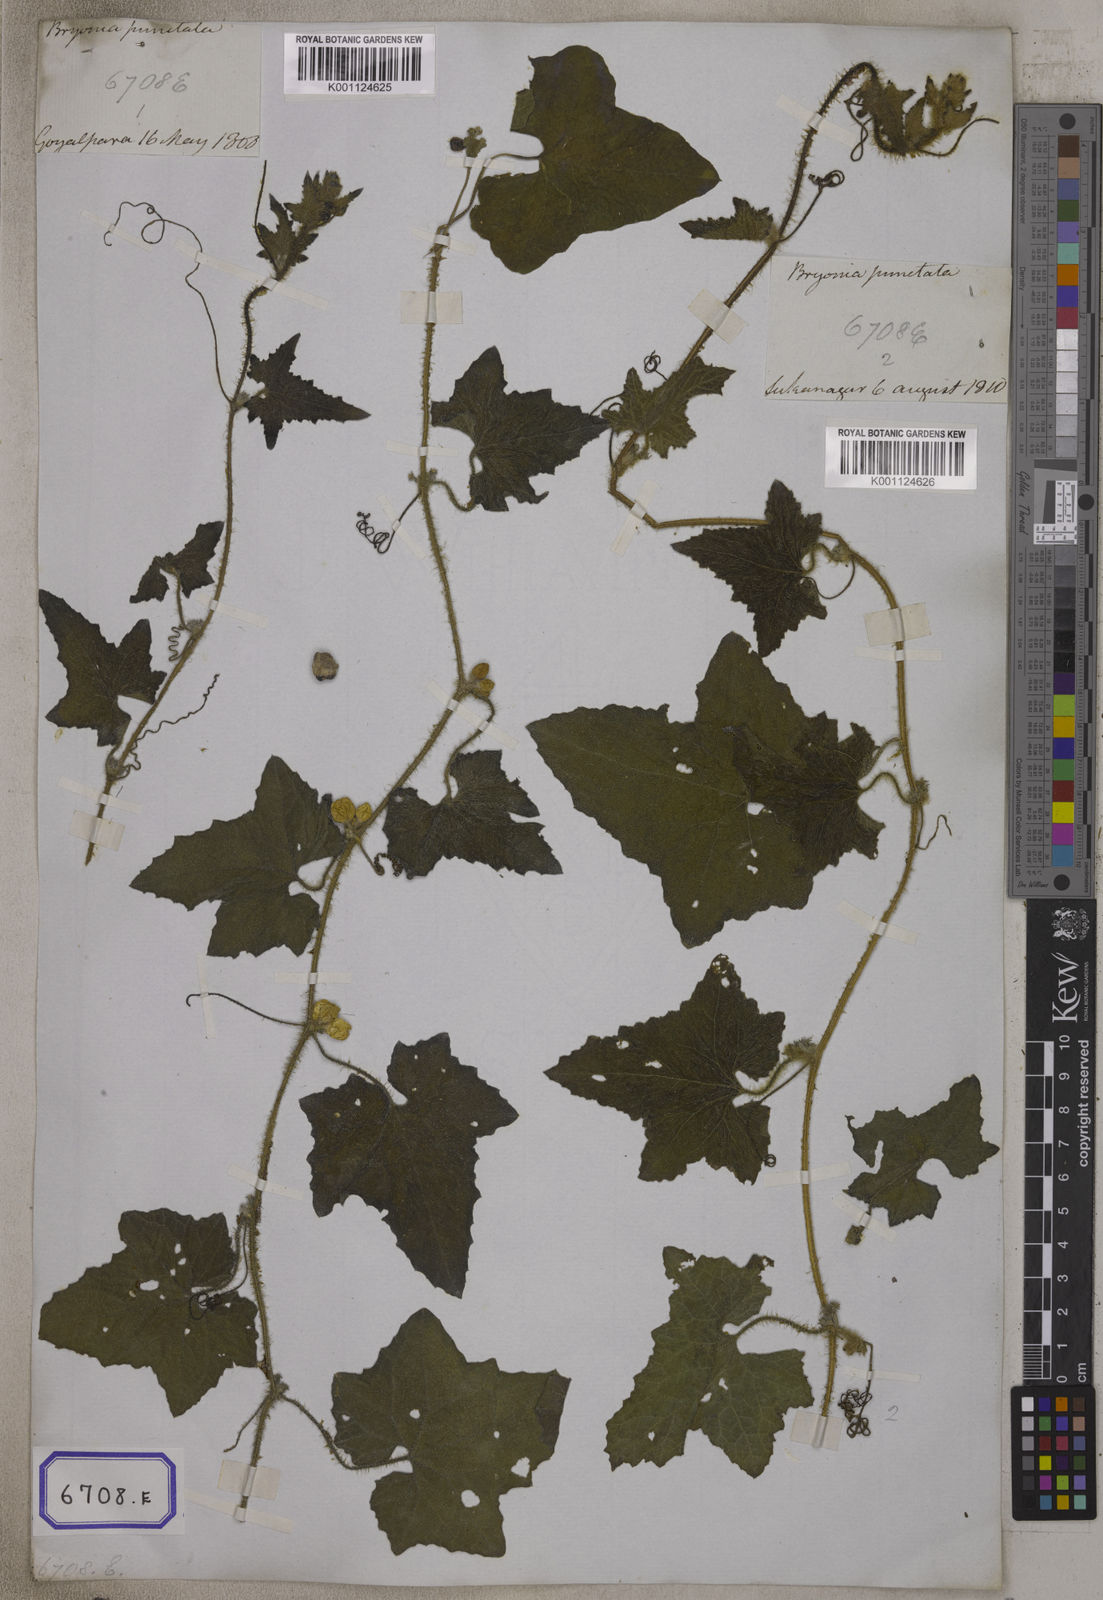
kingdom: Plantae
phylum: Tracheophyta
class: Magnoliopsida
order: Cucurbitales
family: Cucurbitaceae
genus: Bryonia
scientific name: Bryonia
